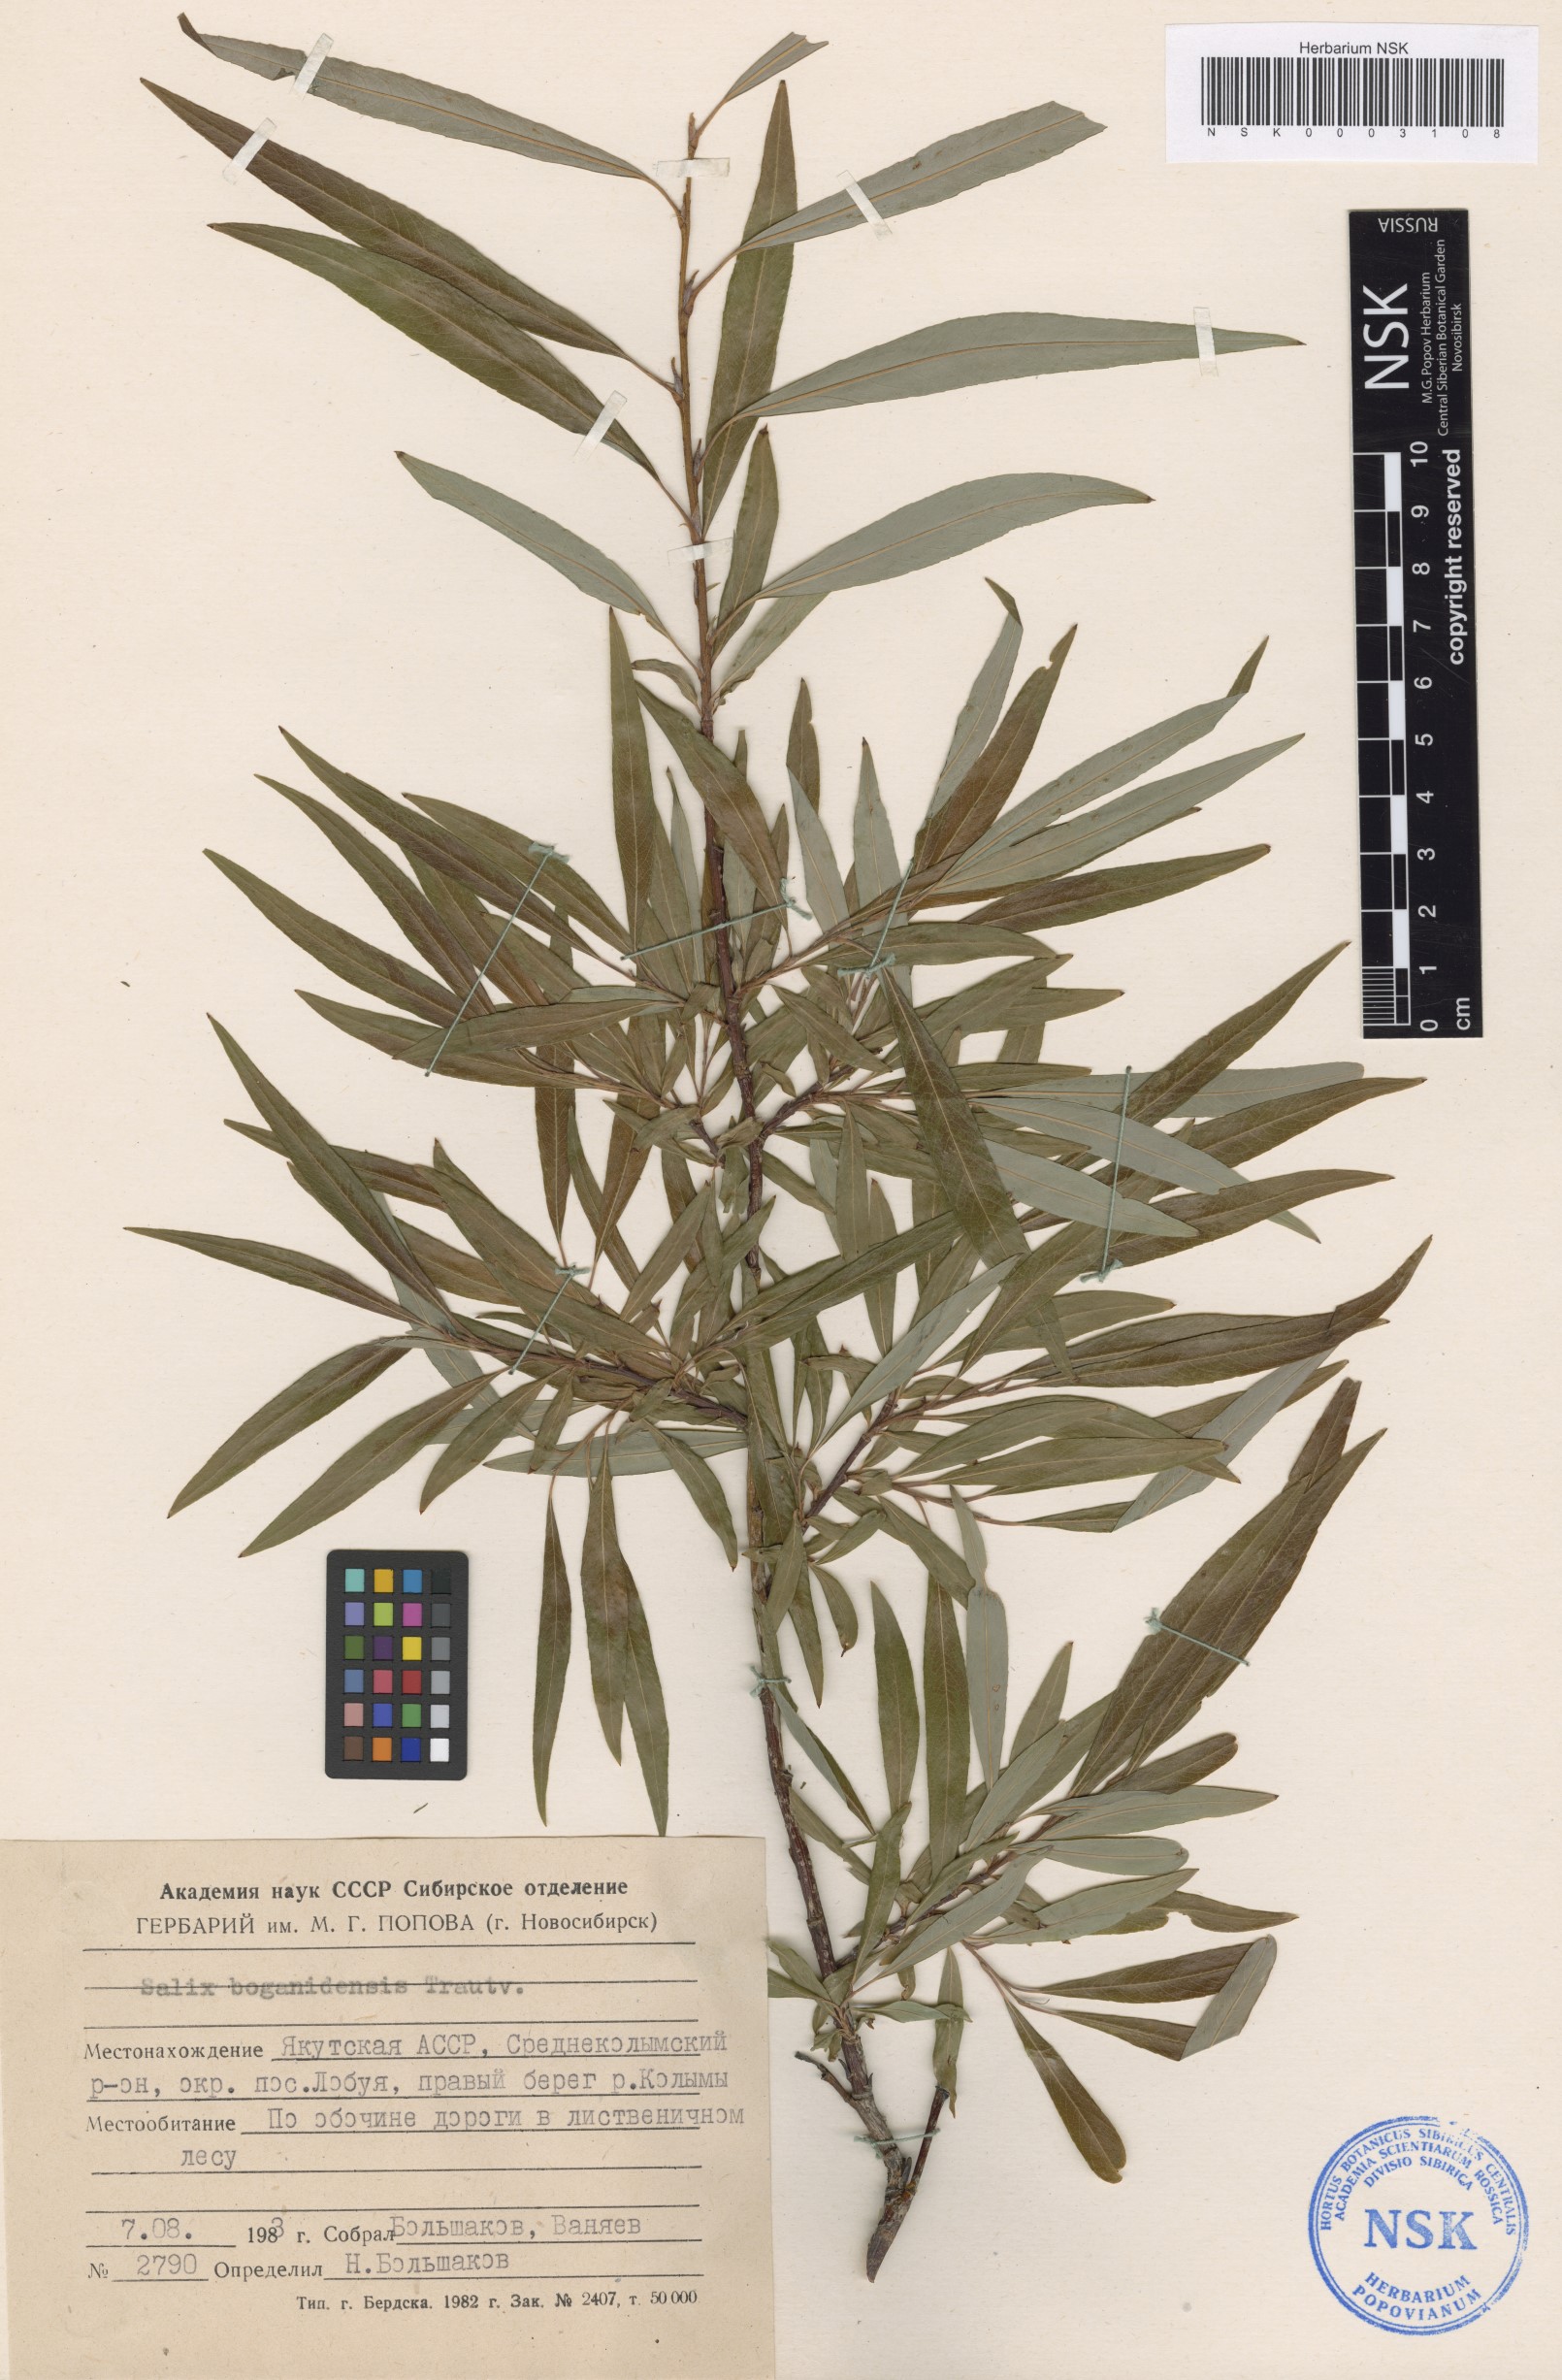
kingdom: Plantae
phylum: Tracheophyta
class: Magnoliopsida
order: Malpighiales
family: Salicaceae
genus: Salix
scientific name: Salix boganidensis
